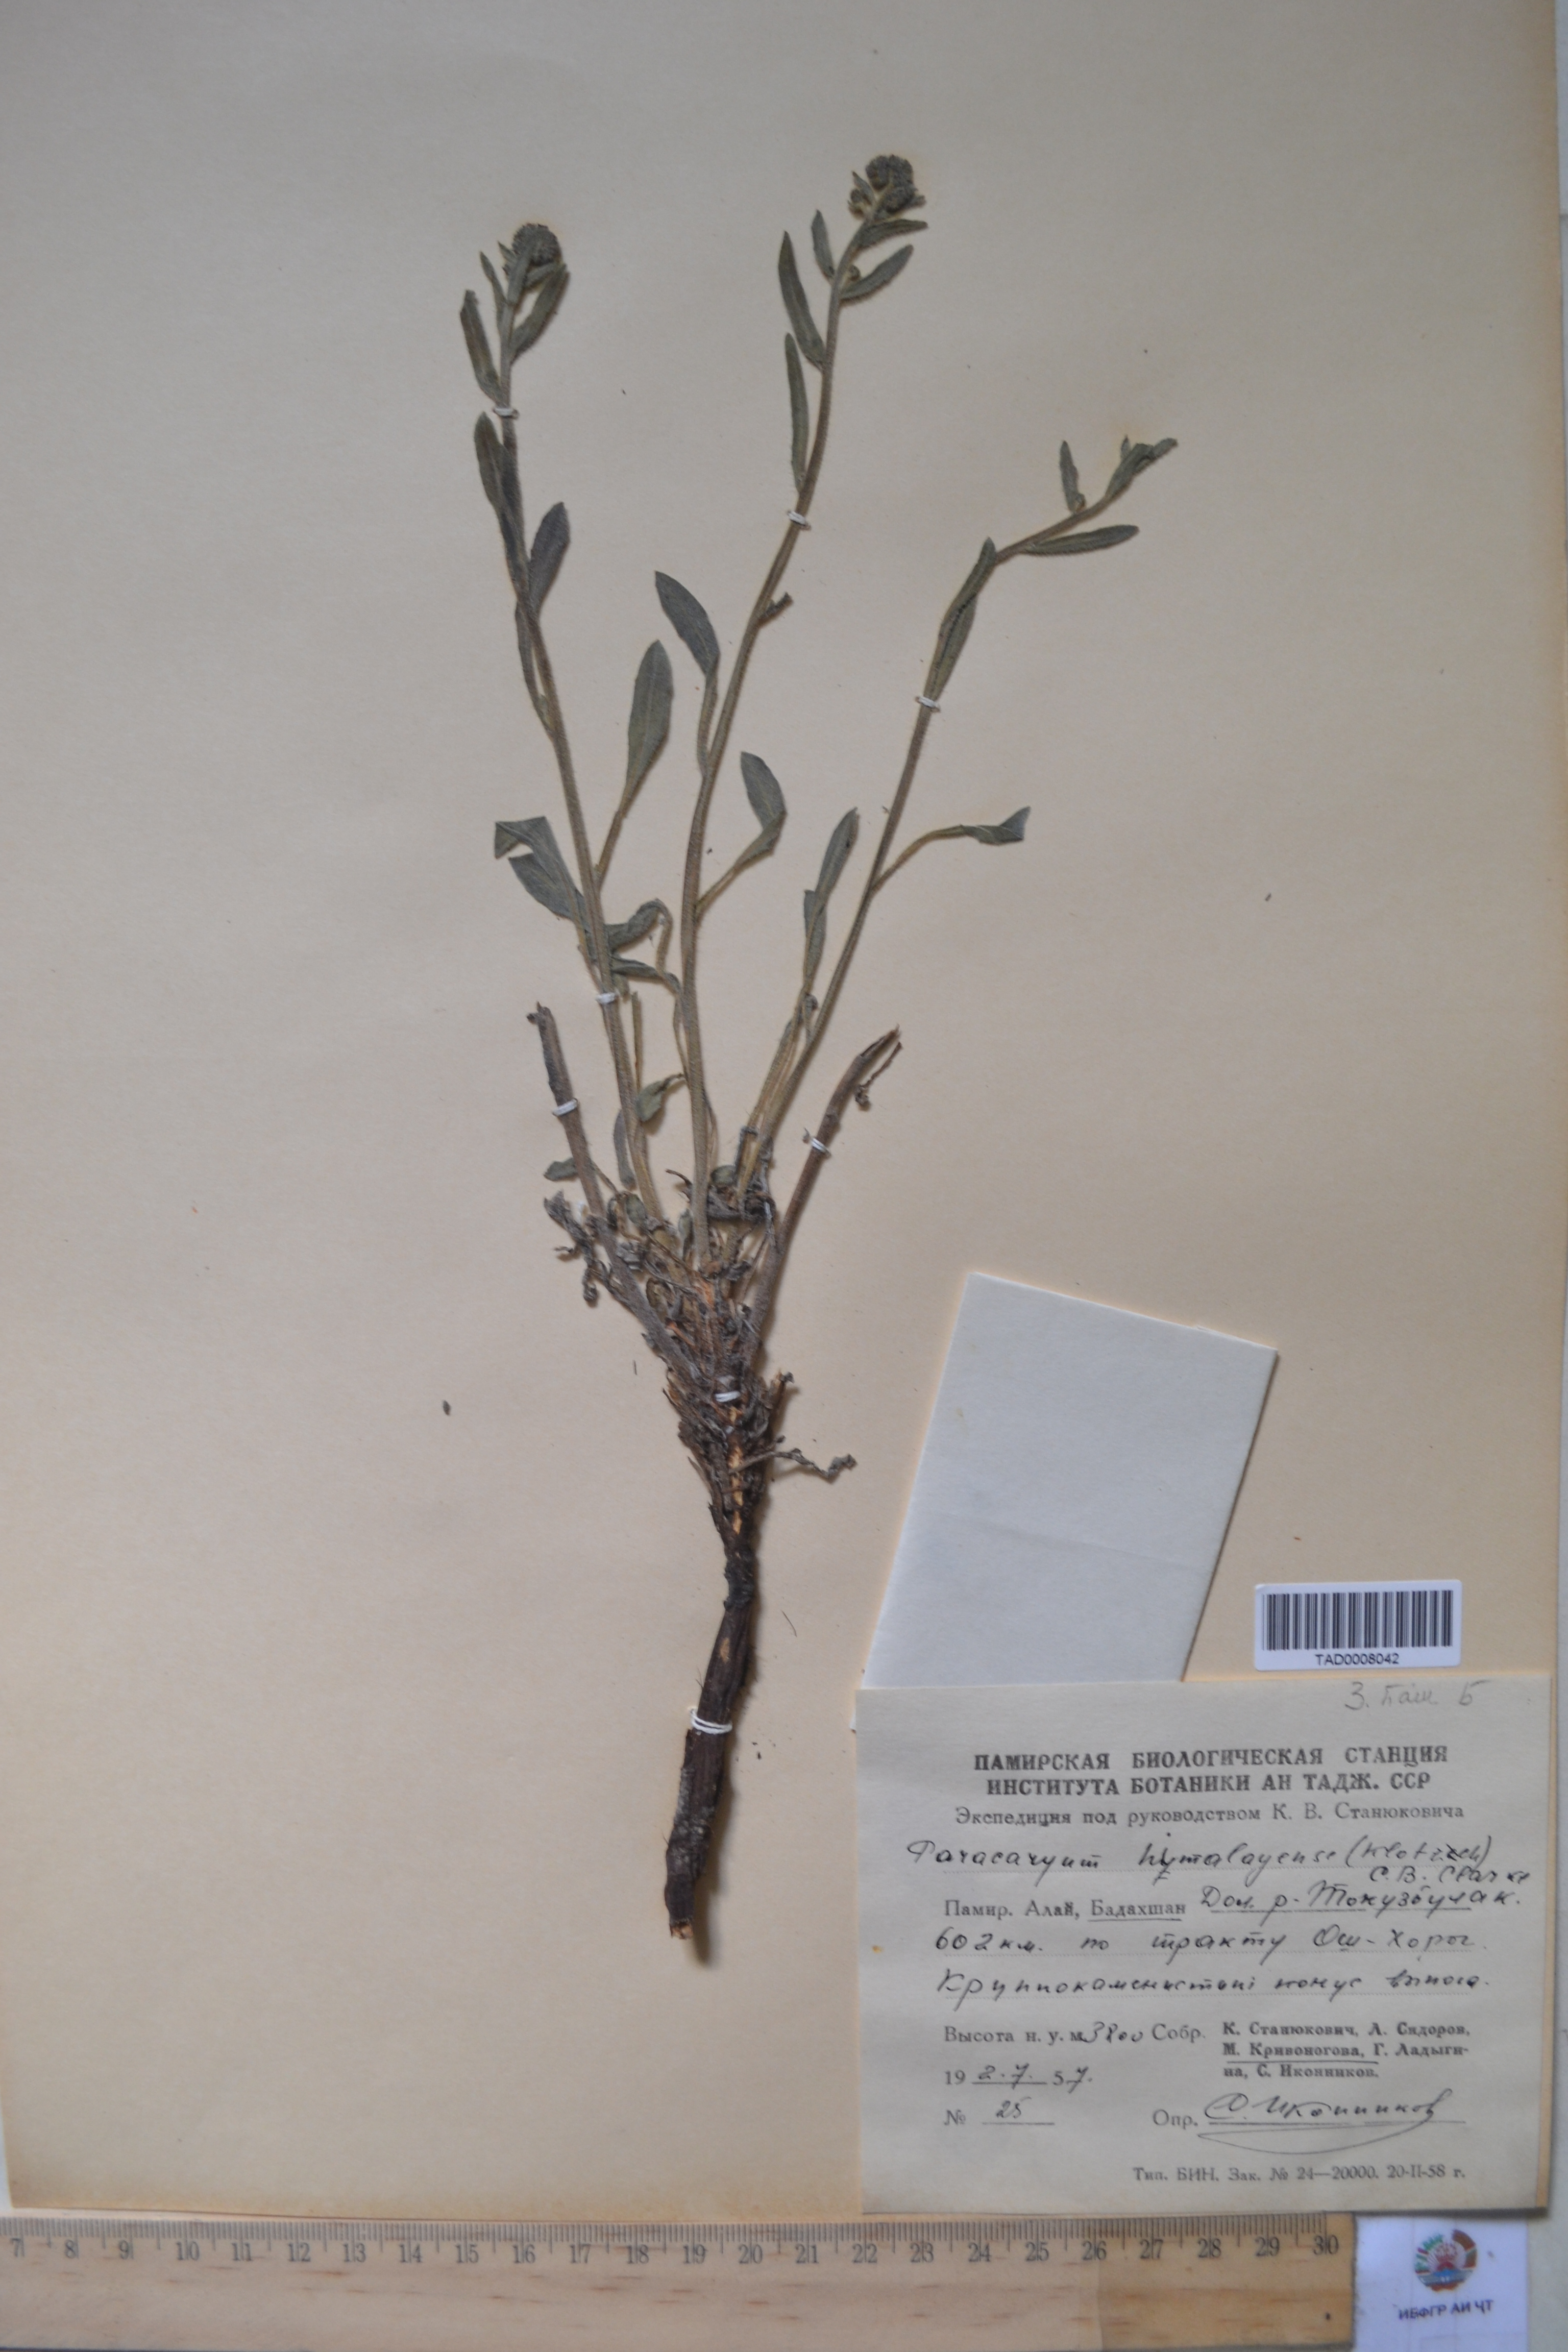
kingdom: Plantae
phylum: Tracheophyta
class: Magnoliopsida
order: Boraginales
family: Boraginaceae
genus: Paracaryum
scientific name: Paracaryum himalayense
